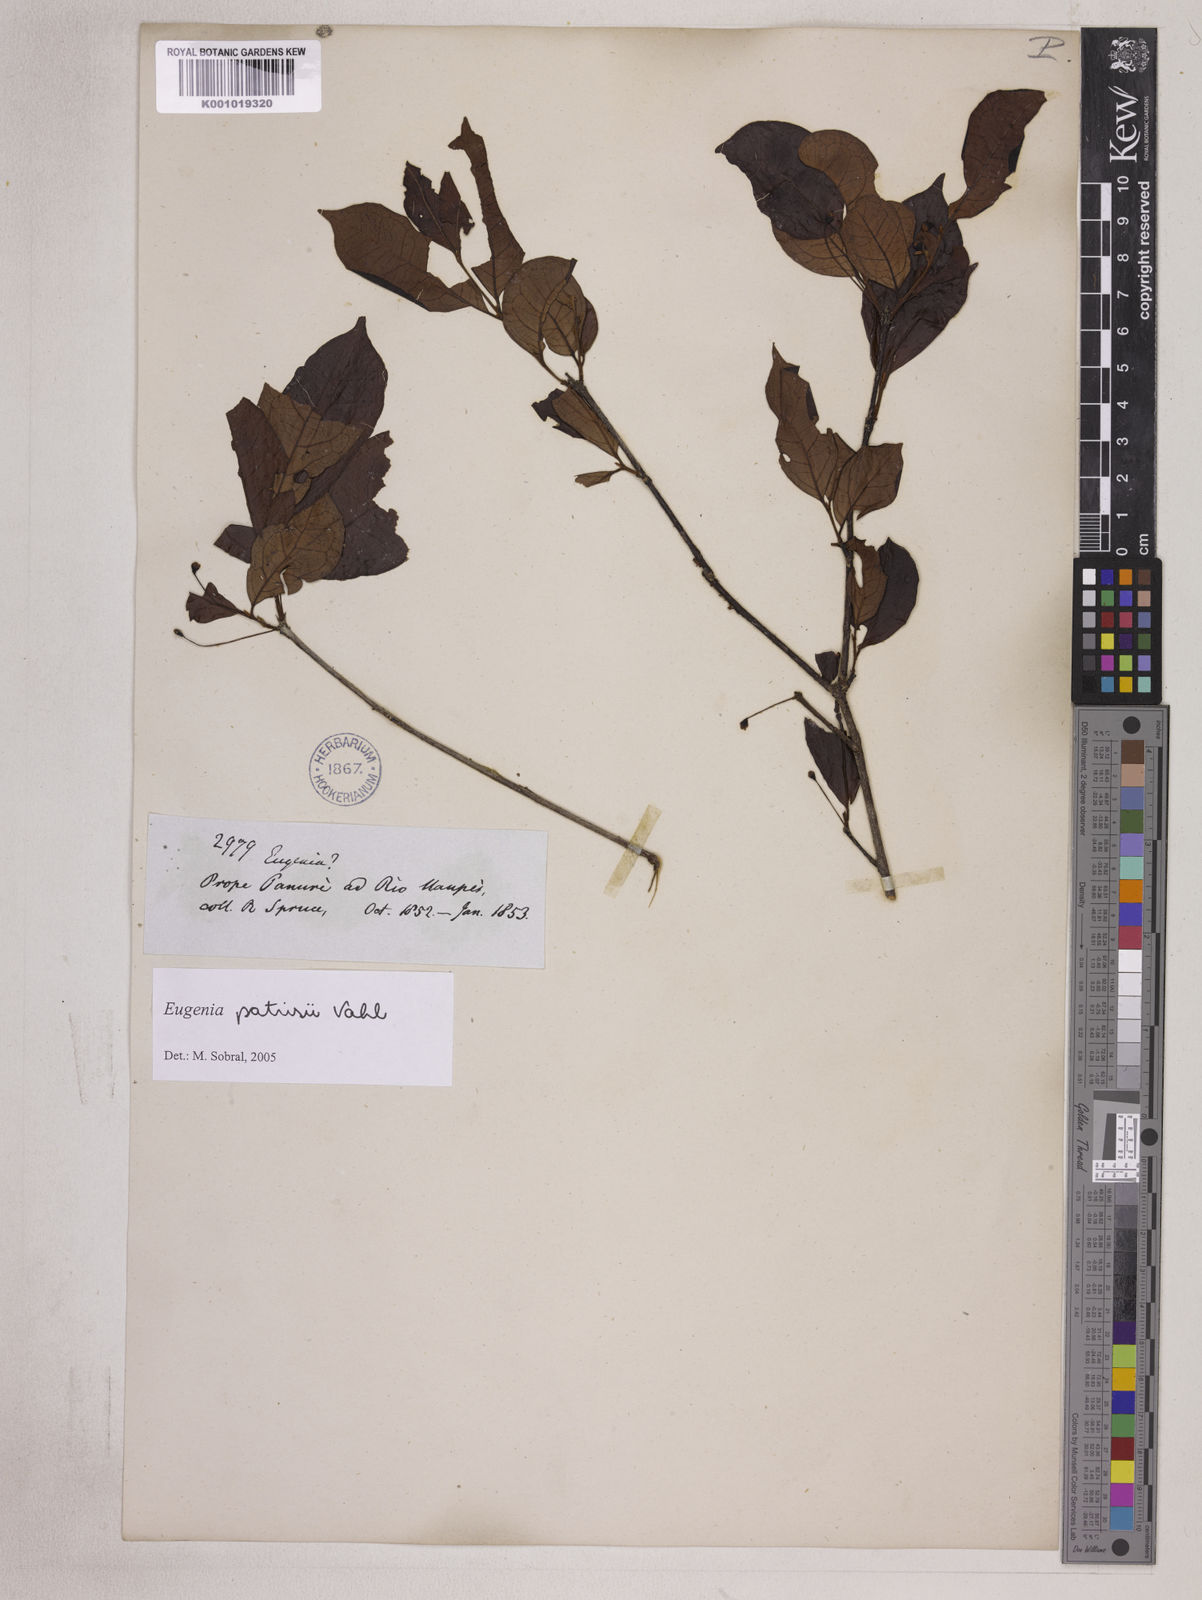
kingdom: Plantae
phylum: Tracheophyta
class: Magnoliopsida
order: Myrtales
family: Myrtaceae
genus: Eugenia
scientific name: Eugenia patrisii
